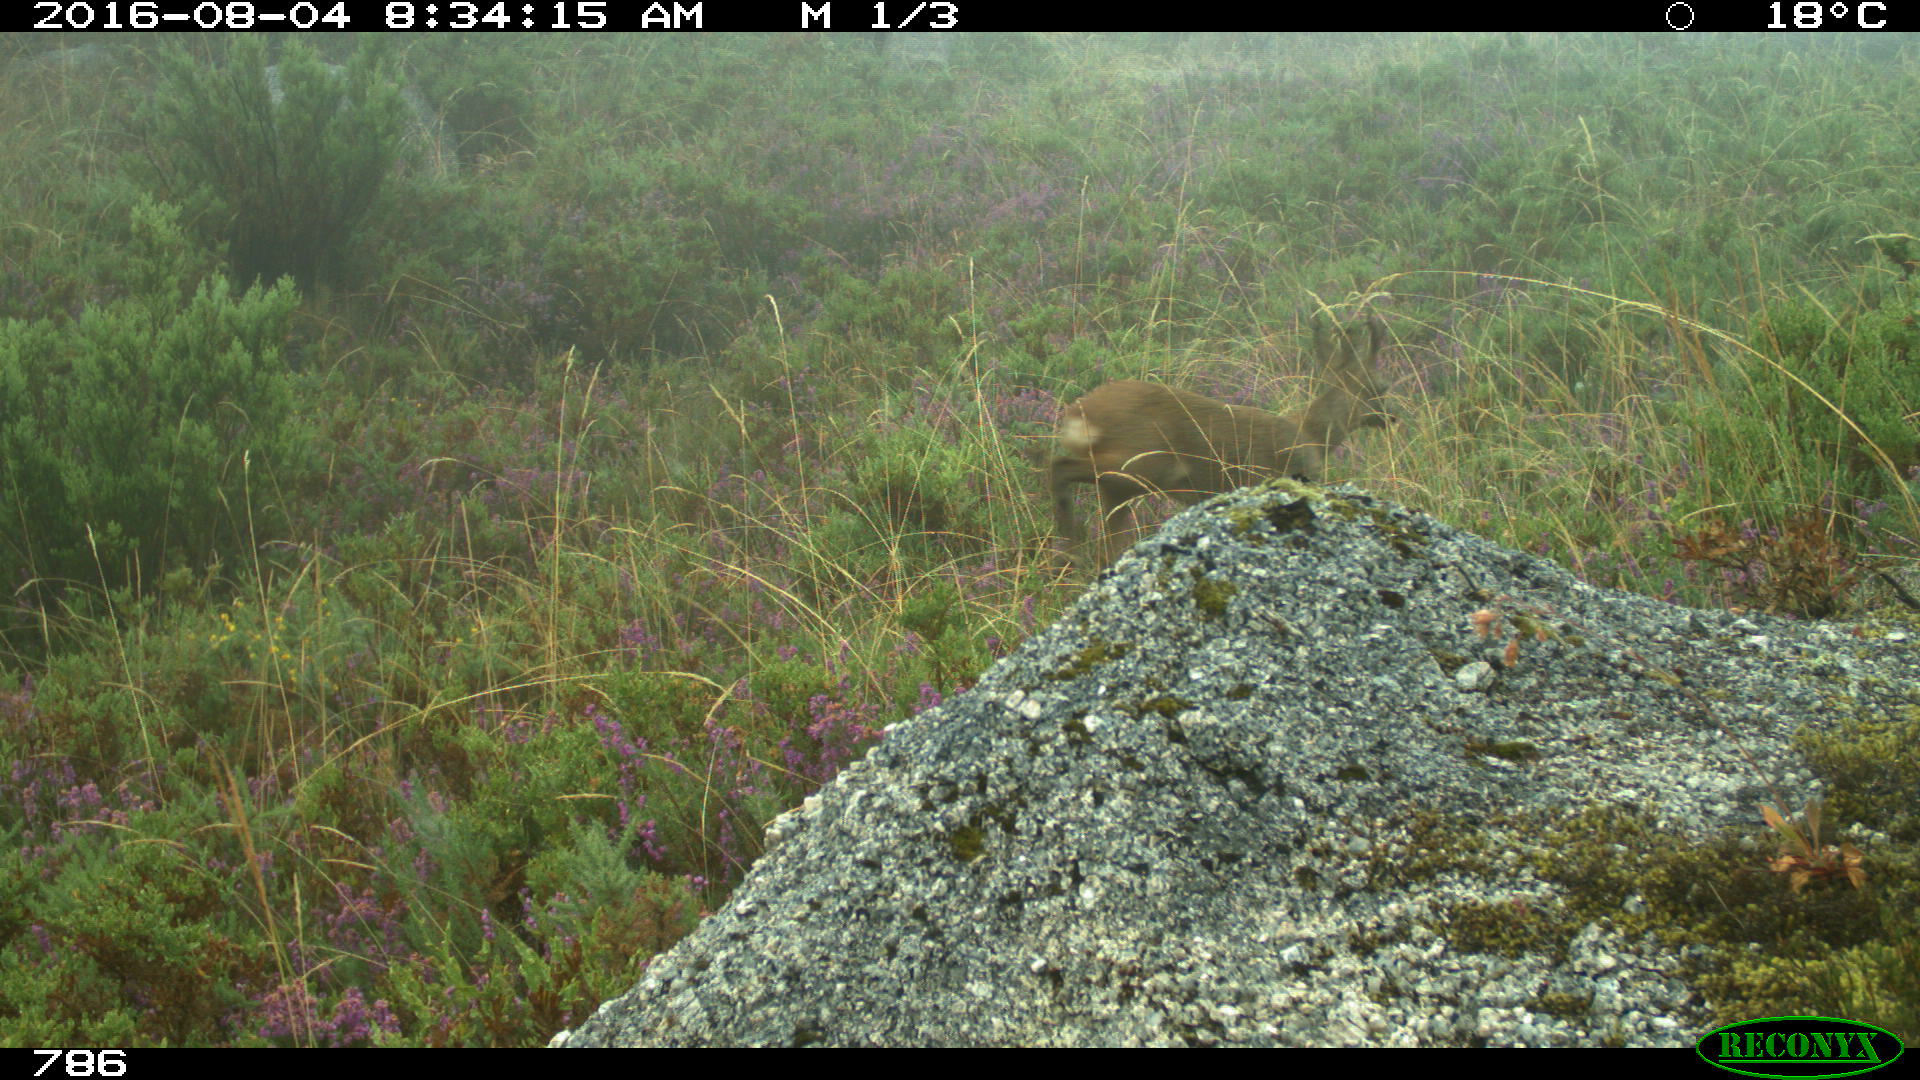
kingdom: Animalia
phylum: Chordata
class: Mammalia
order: Artiodactyla
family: Cervidae
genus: Capreolus
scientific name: Capreolus capreolus
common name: Western roe deer
